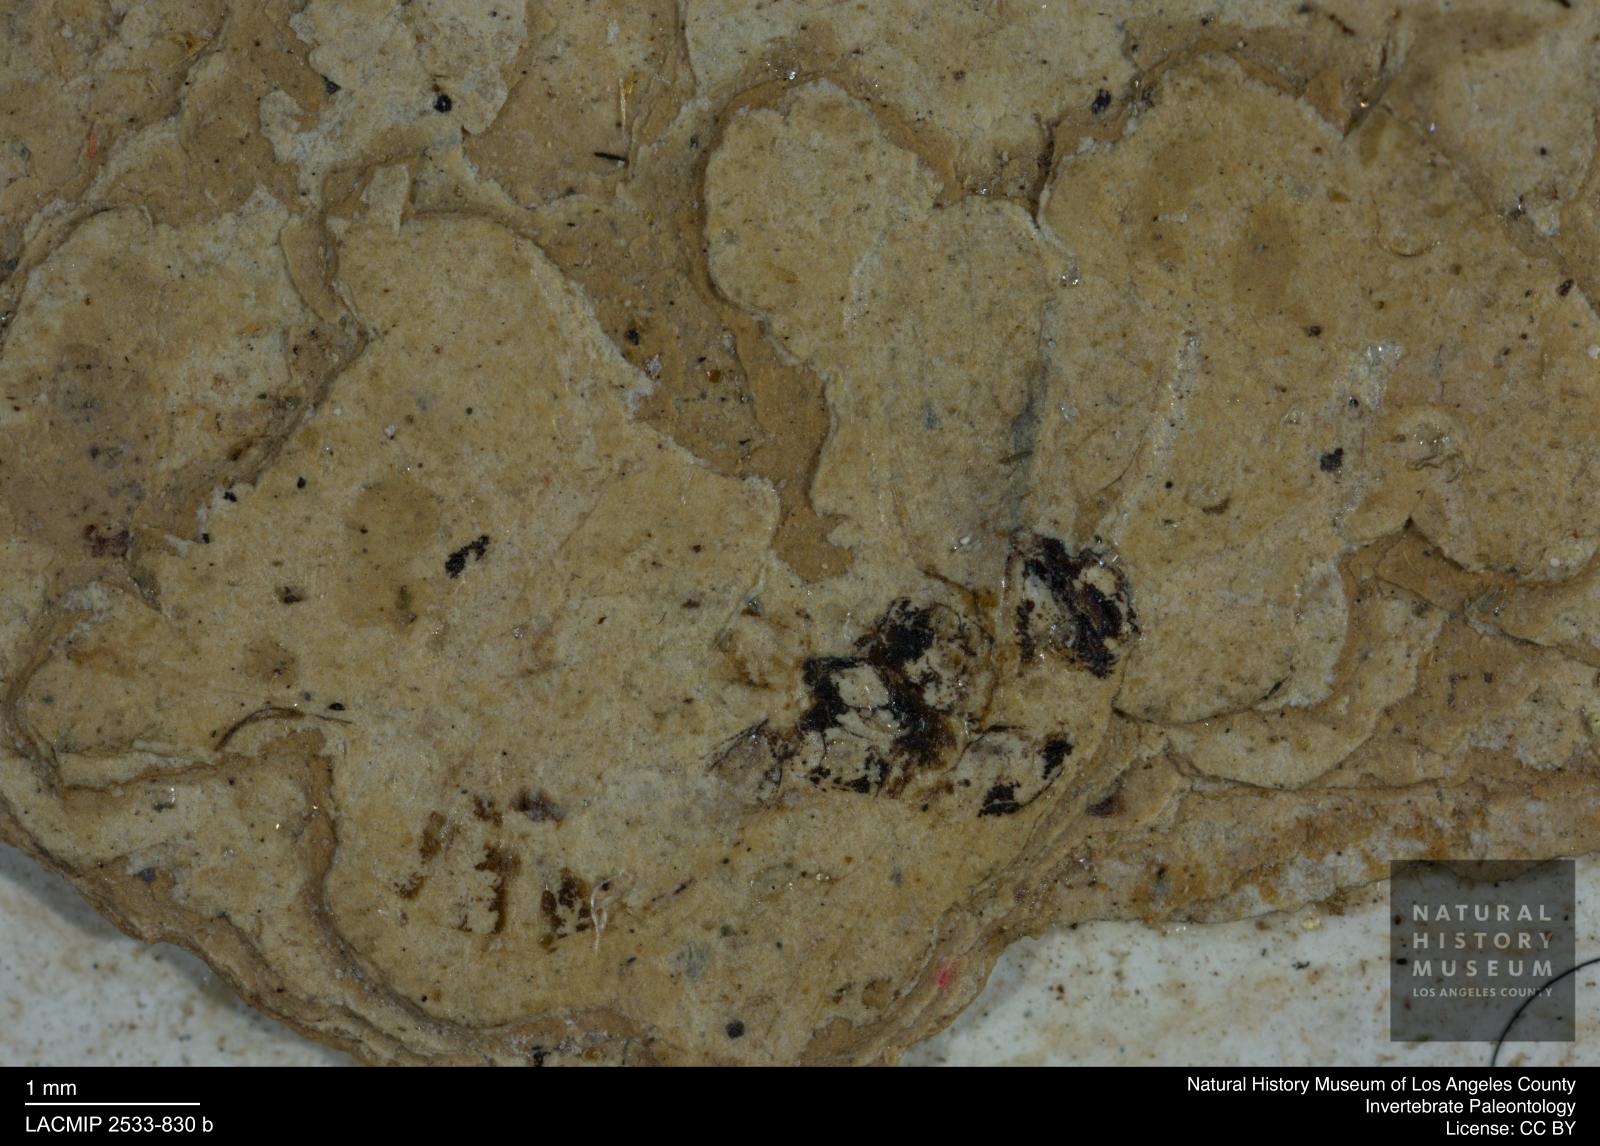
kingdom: Animalia
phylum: Arthropoda
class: Insecta
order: Hymenoptera
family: Ichneumonidae
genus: Polysphincta
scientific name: Polysphincta statzi
